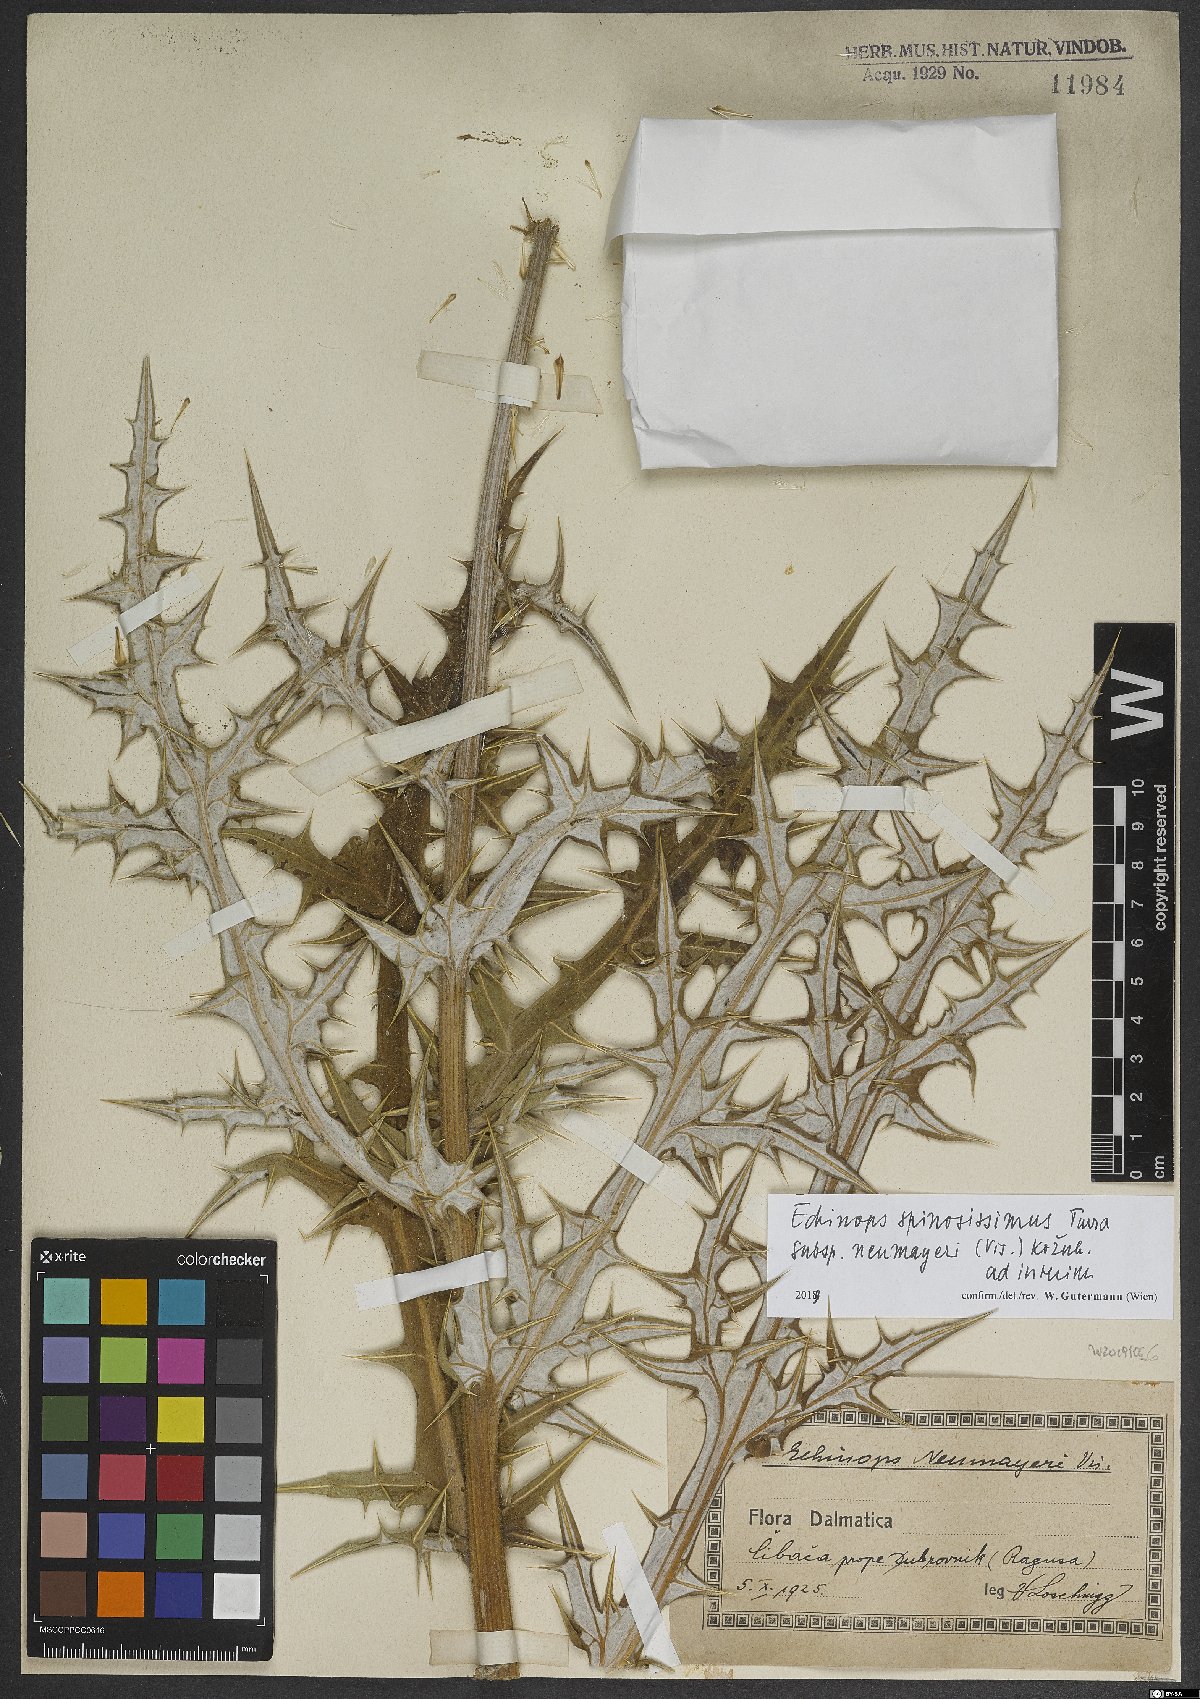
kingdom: Plantae
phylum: Tracheophyta
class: Magnoliopsida
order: Asterales
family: Asteraceae
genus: Echinops
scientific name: Echinops spinosissimus
